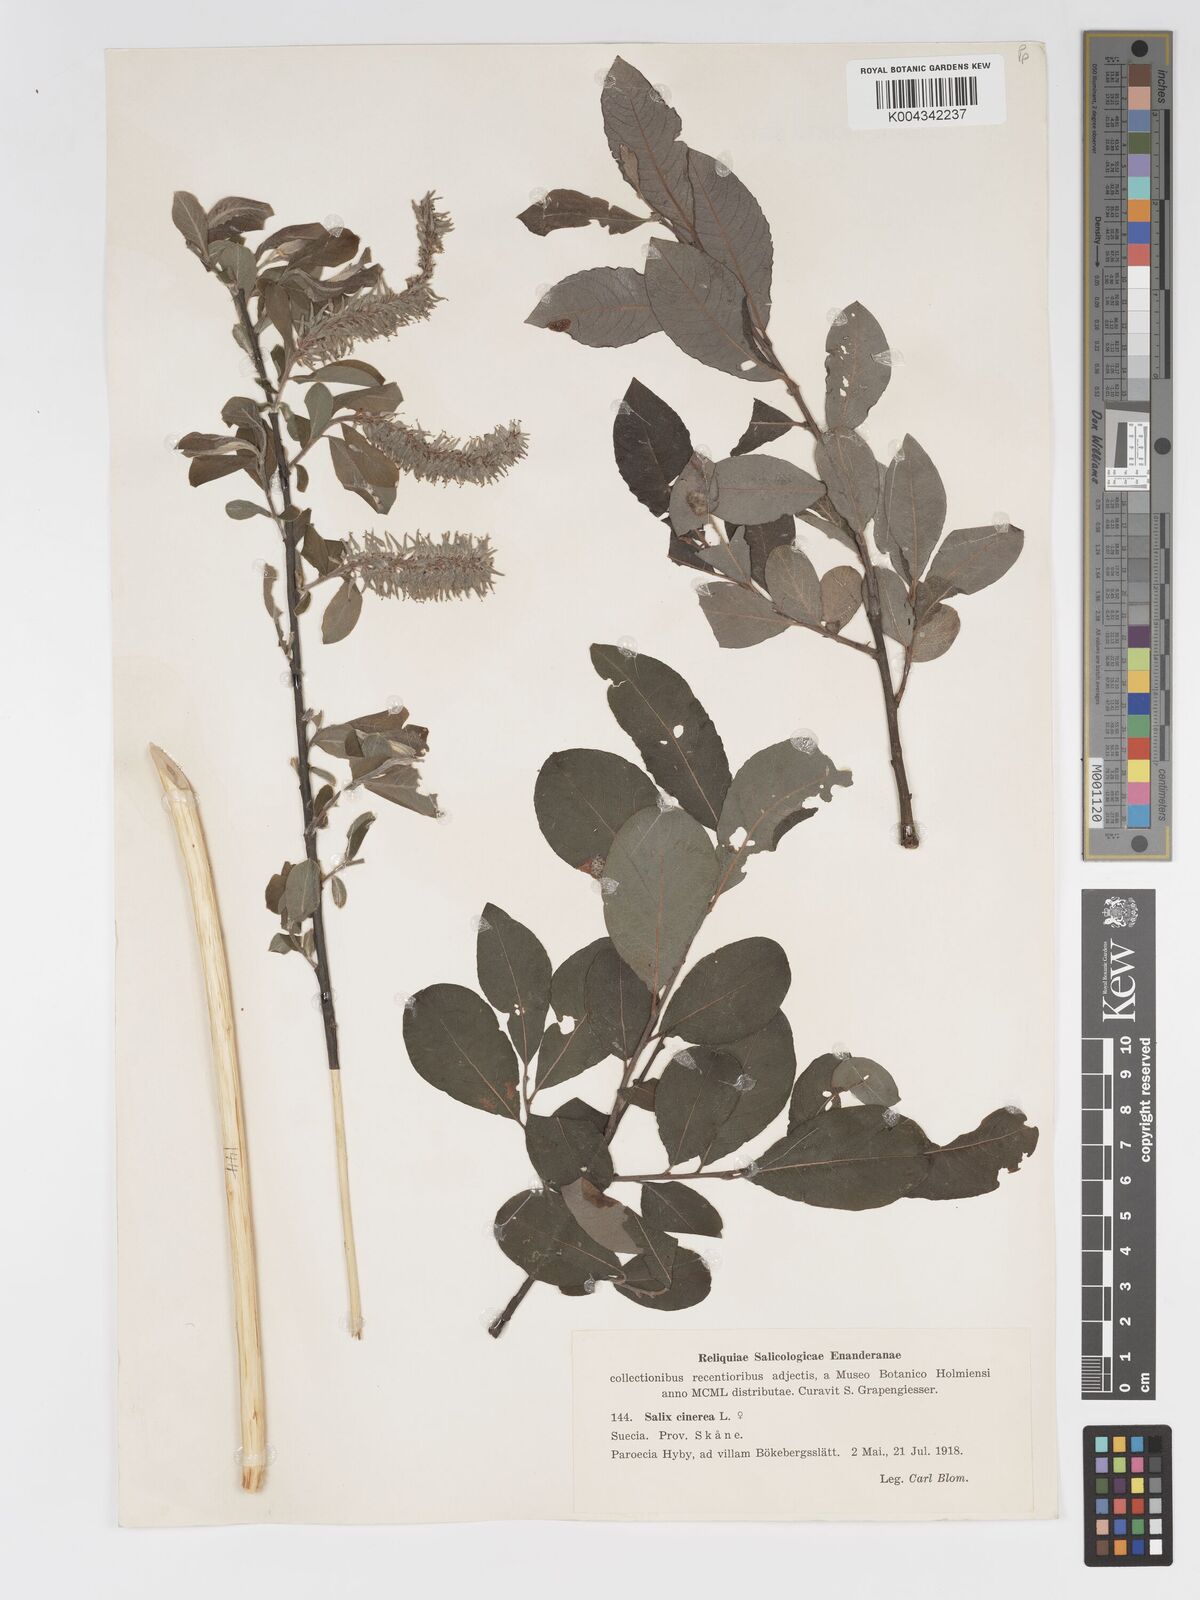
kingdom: Plantae
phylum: Tracheophyta
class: Magnoliopsida
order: Malpighiales
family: Salicaceae
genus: Salix
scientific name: Salix
